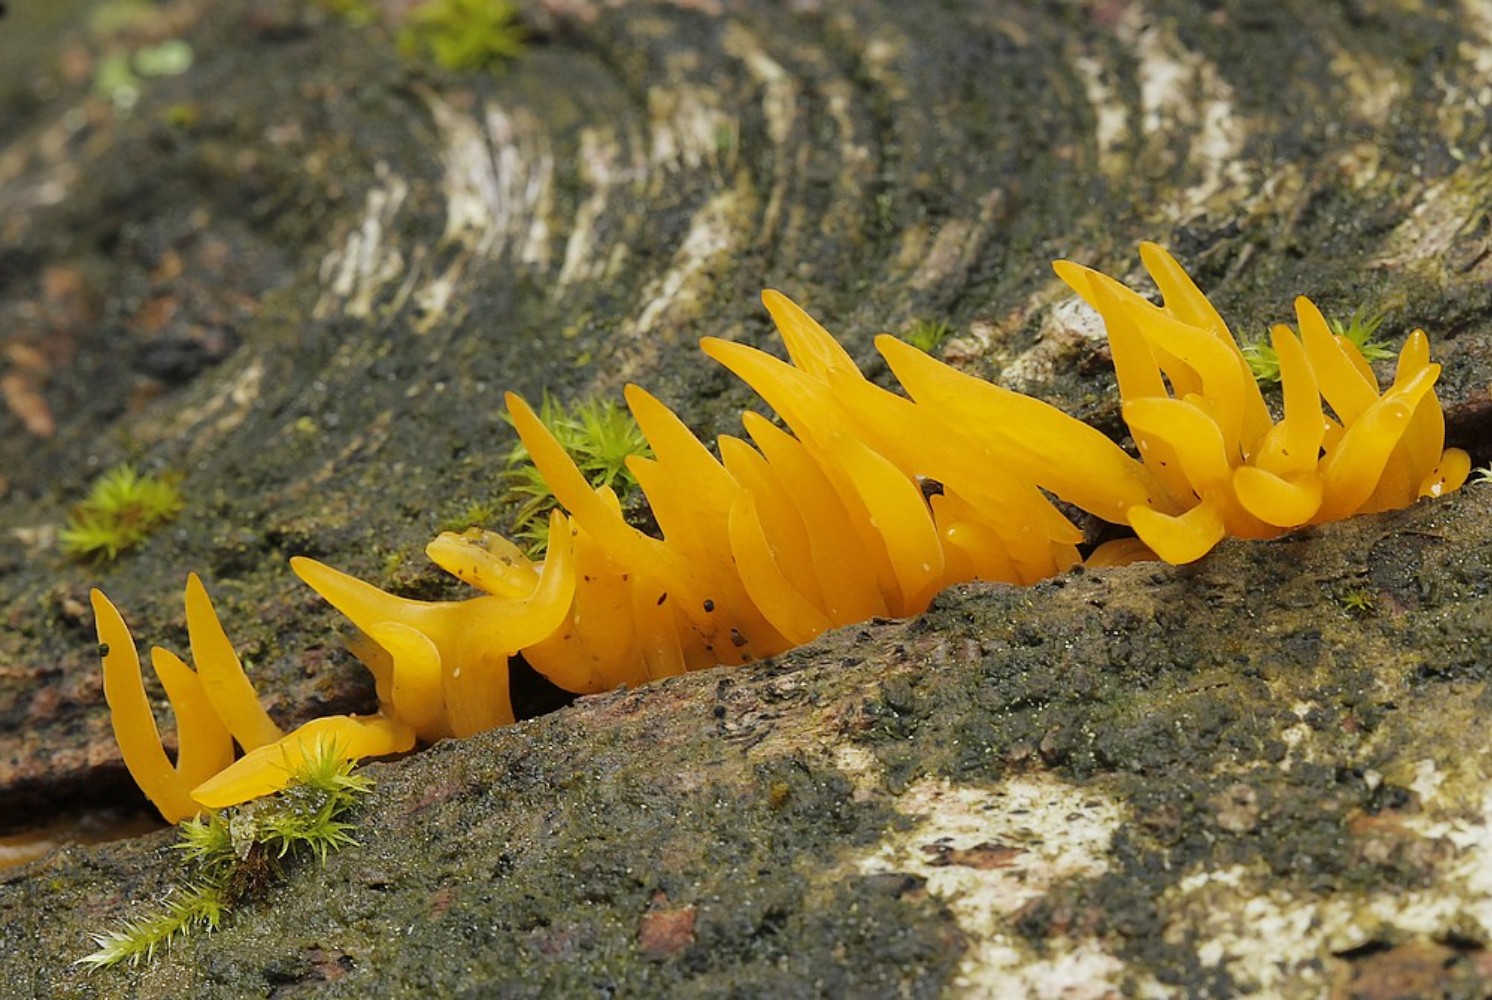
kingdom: Fungi
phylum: Basidiomycota
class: Dacrymycetes
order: Dacrymycetales
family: Dacrymycetaceae
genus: Calocera
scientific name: Calocera viscosa
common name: almindelig guldgaffel
